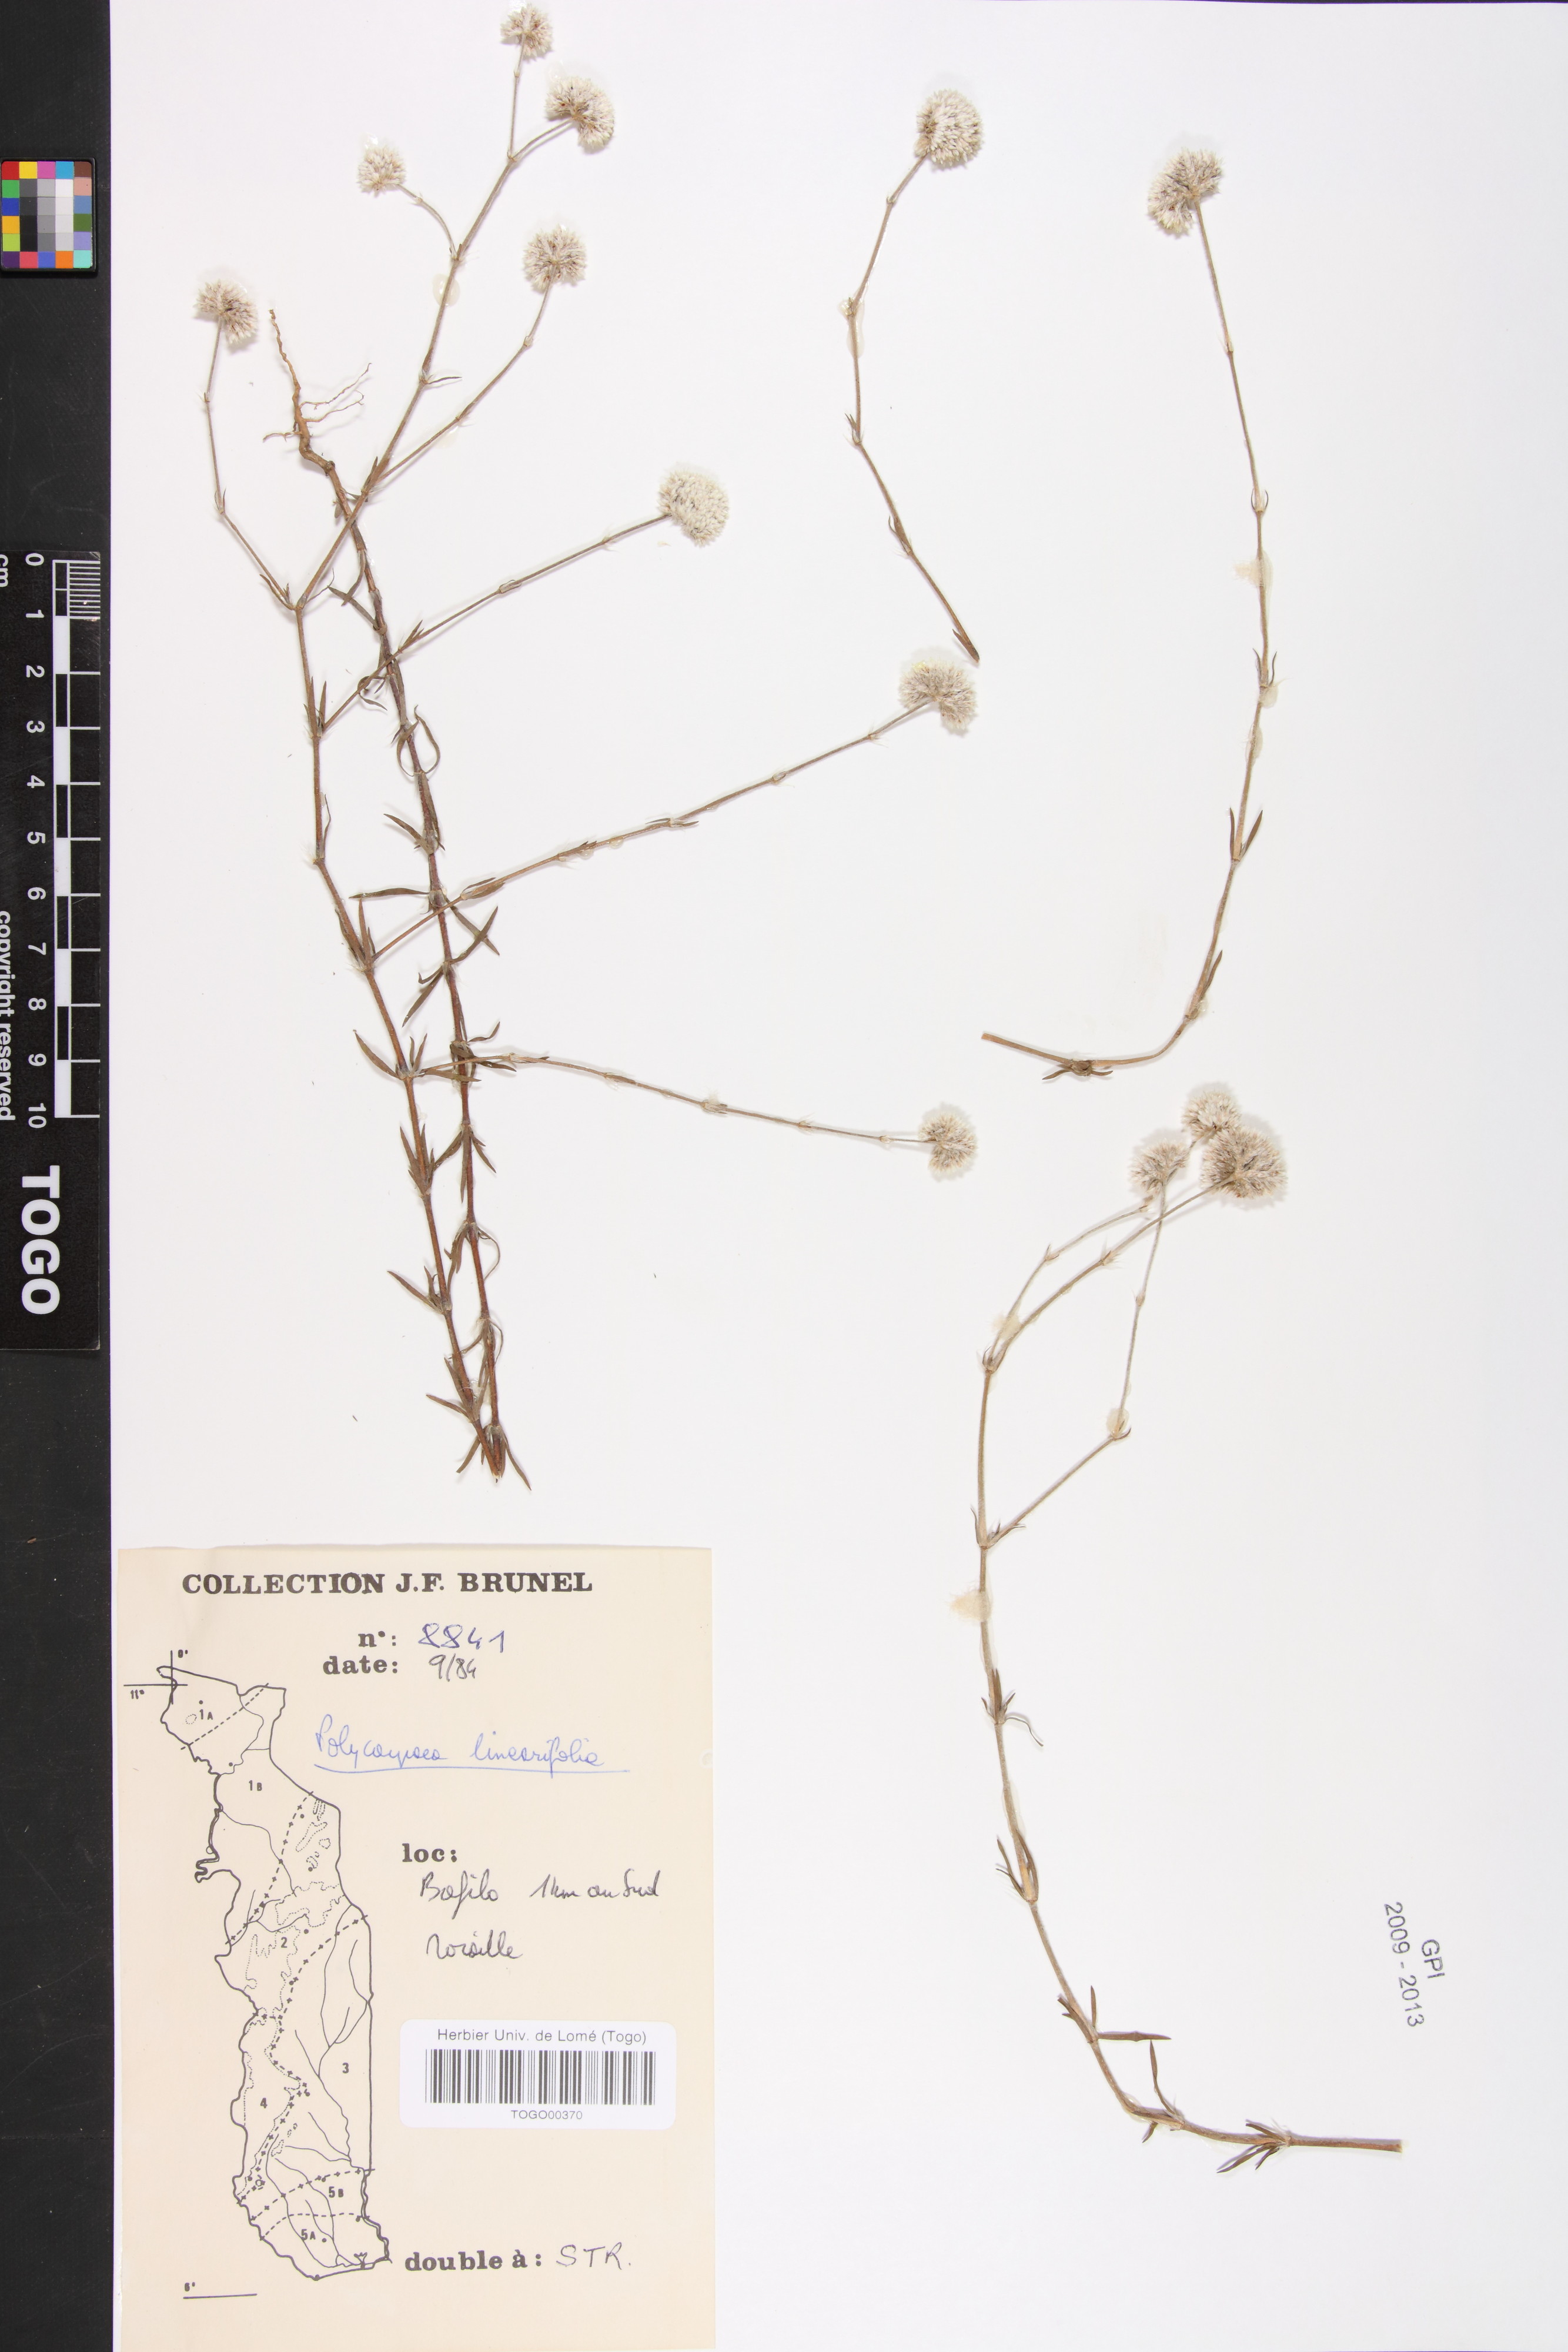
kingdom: Plantae
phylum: Tracheophyta
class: Magnoliopsida
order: Caryophyllales
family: Caryophyllaceae
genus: Polycarpaea
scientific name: Polycarpaea linearifolia
